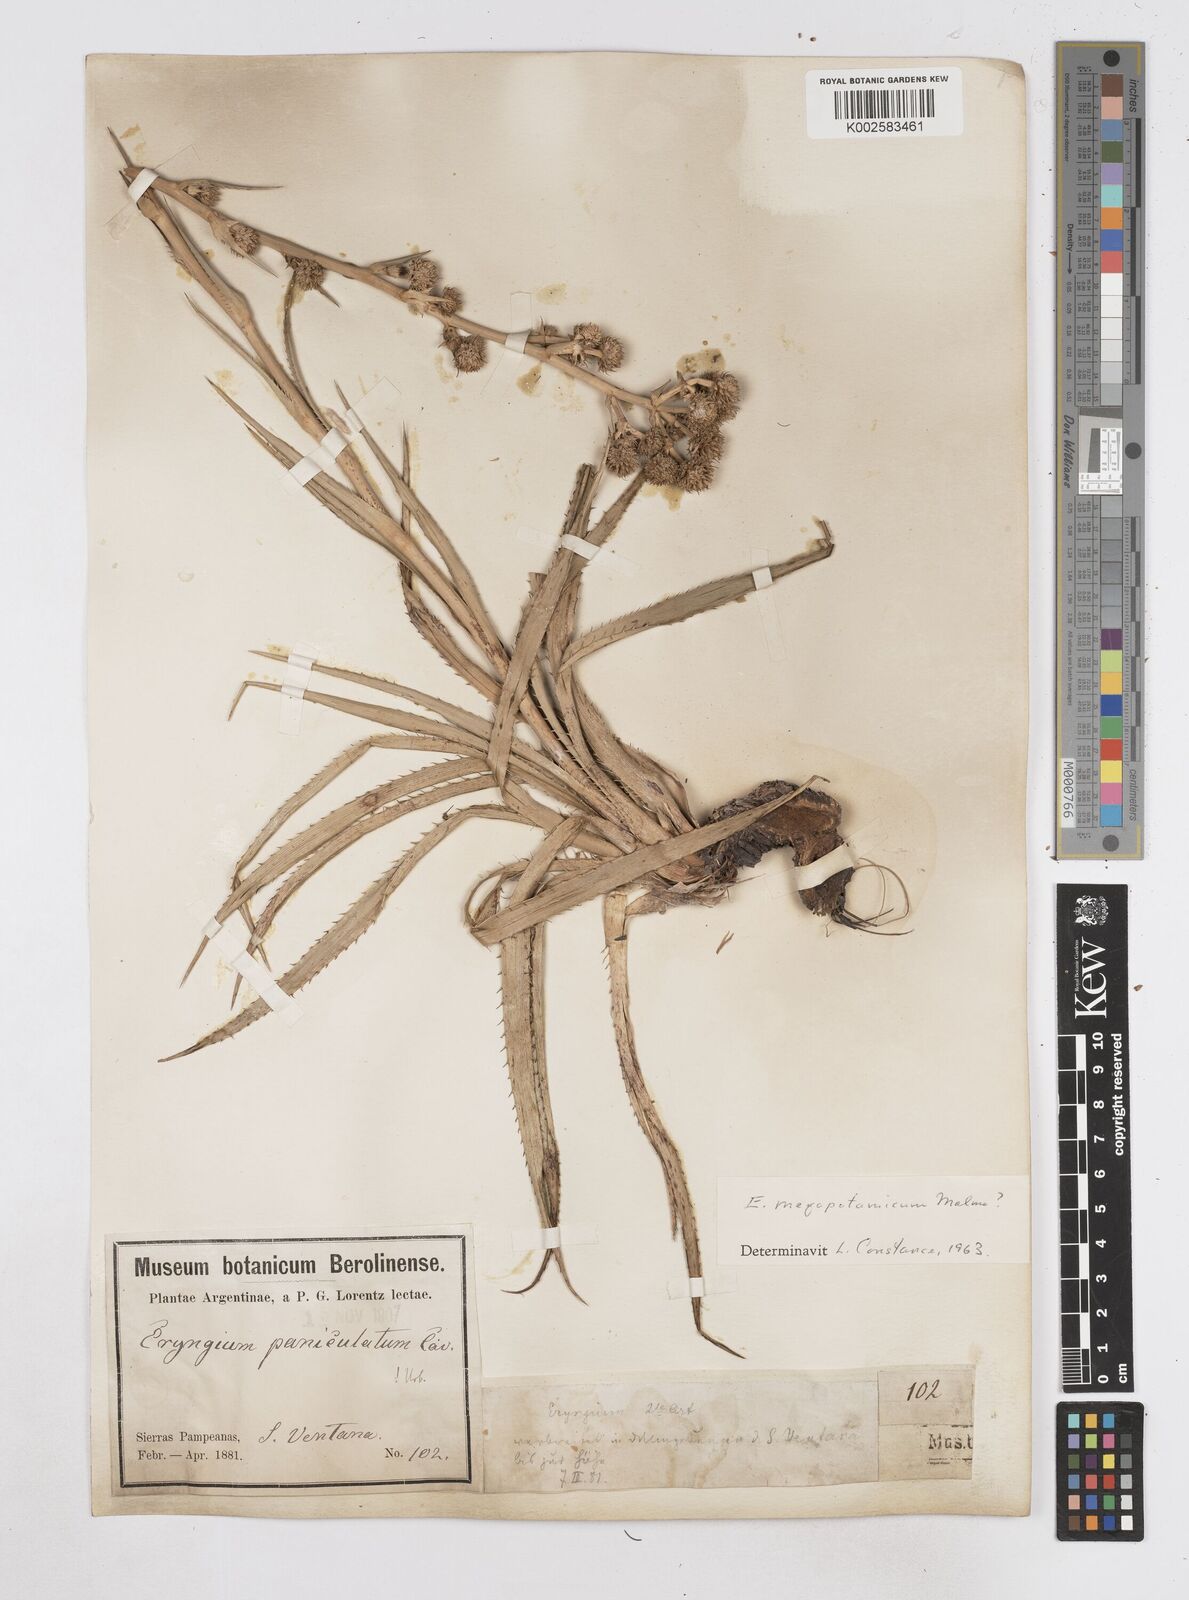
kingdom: Plantae
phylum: Tracheophyta
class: Magnoliopsida
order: Apiales
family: Apiaceae
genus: Eryngium
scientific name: Eryngium megapotamicum
